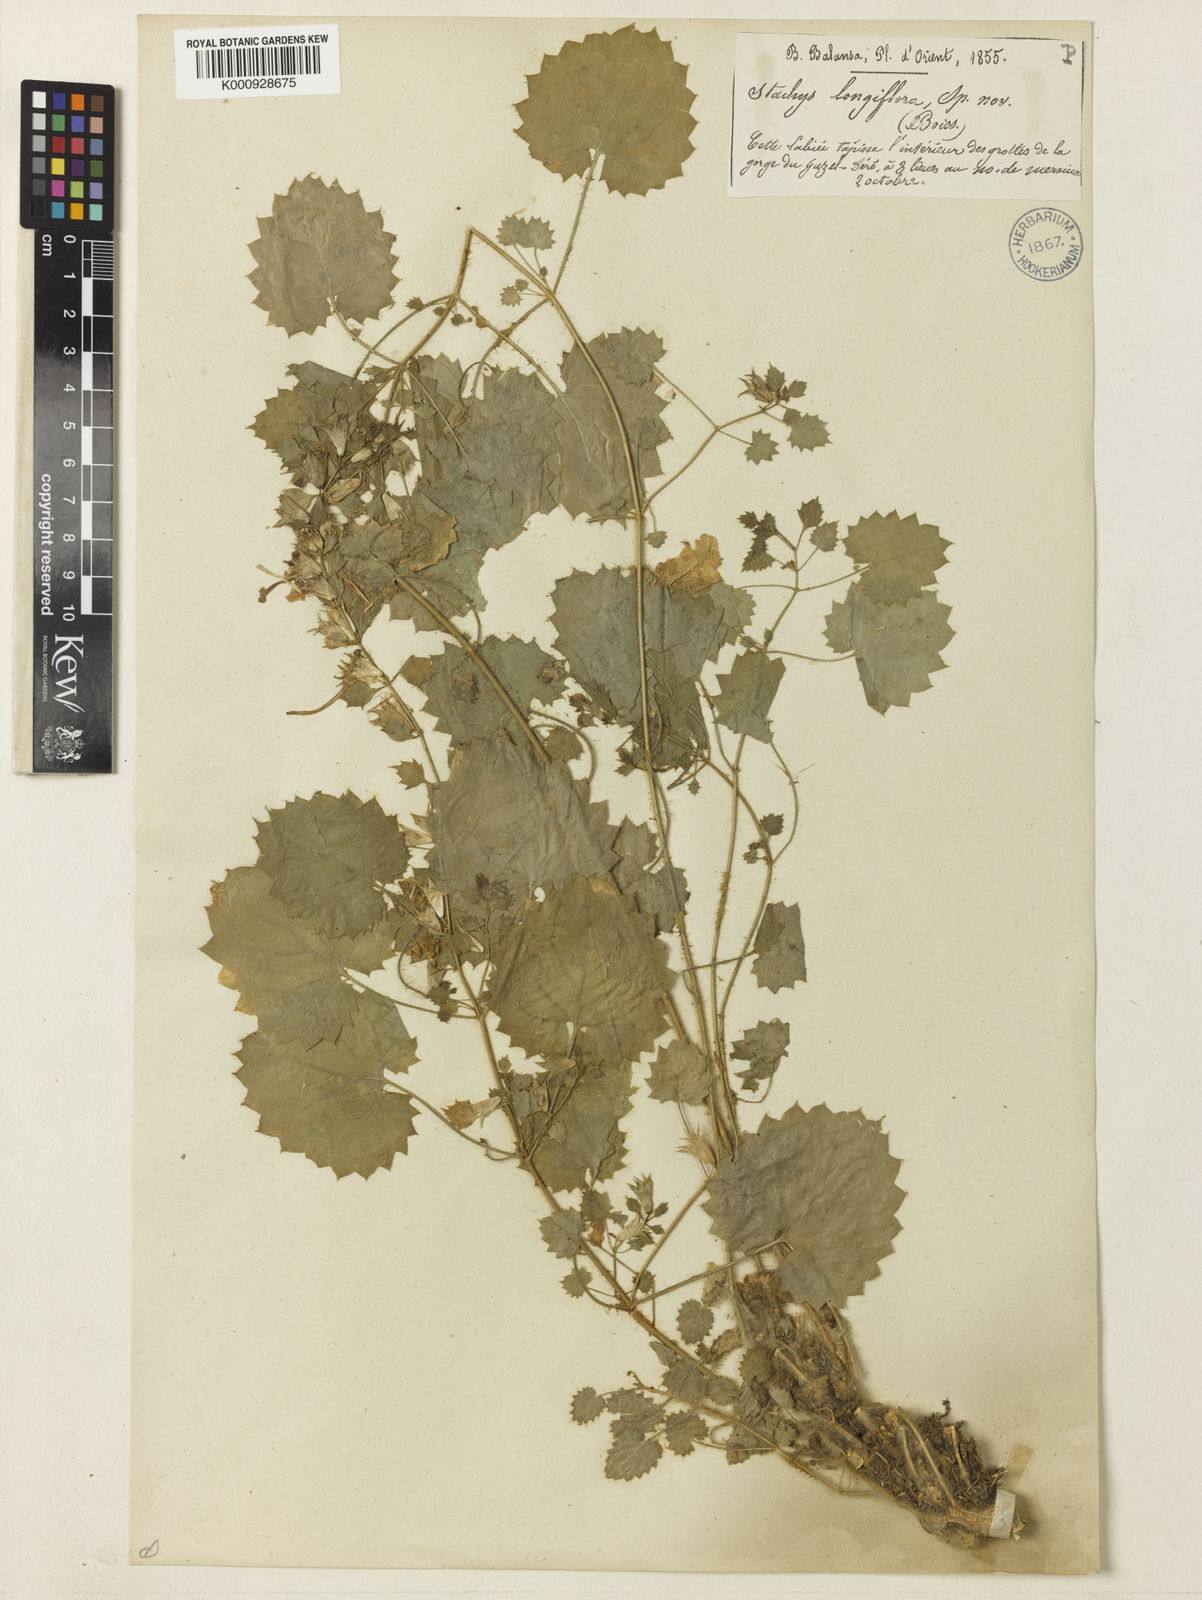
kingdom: Plantae
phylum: Tracheophyta
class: Magnoliopsida
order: Lamiales
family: Lamiaceae
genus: Stachys
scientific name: Stachys longiflora
